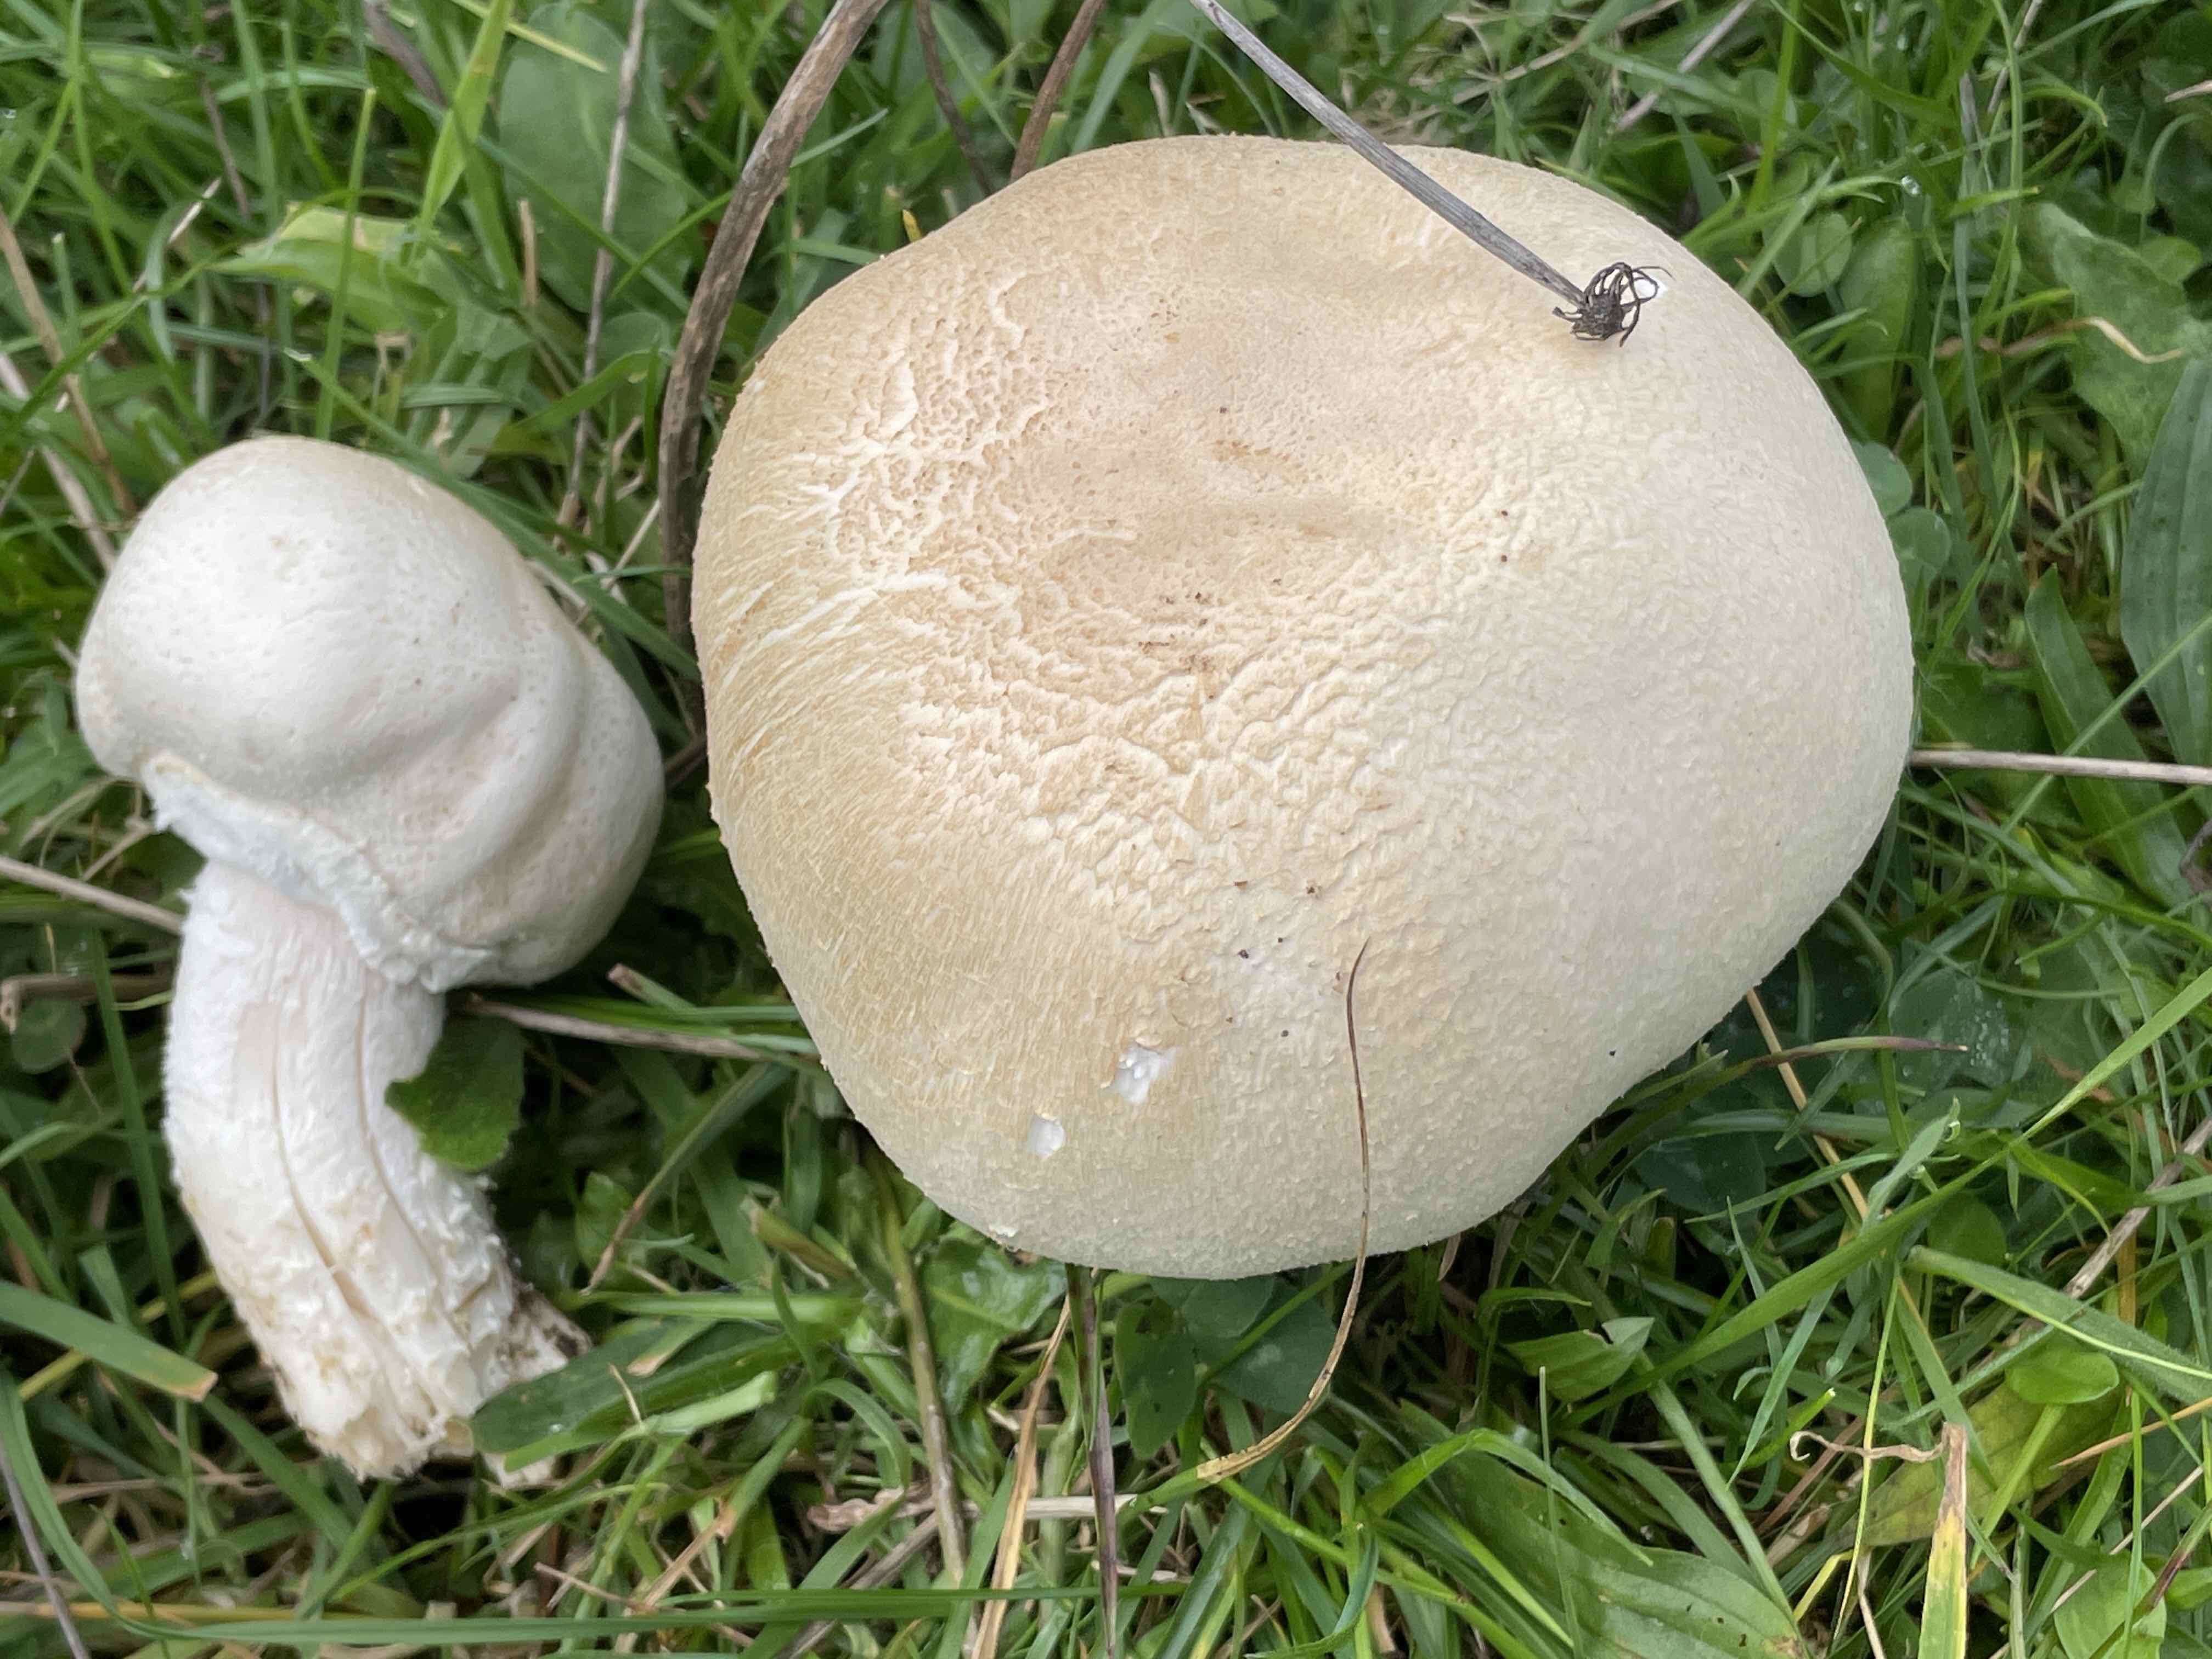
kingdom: Fungi
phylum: Basidiomycota
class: Agaricomycetes
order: Agaricales
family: Agaricaceae
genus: Agaricus
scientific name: Agaricus
